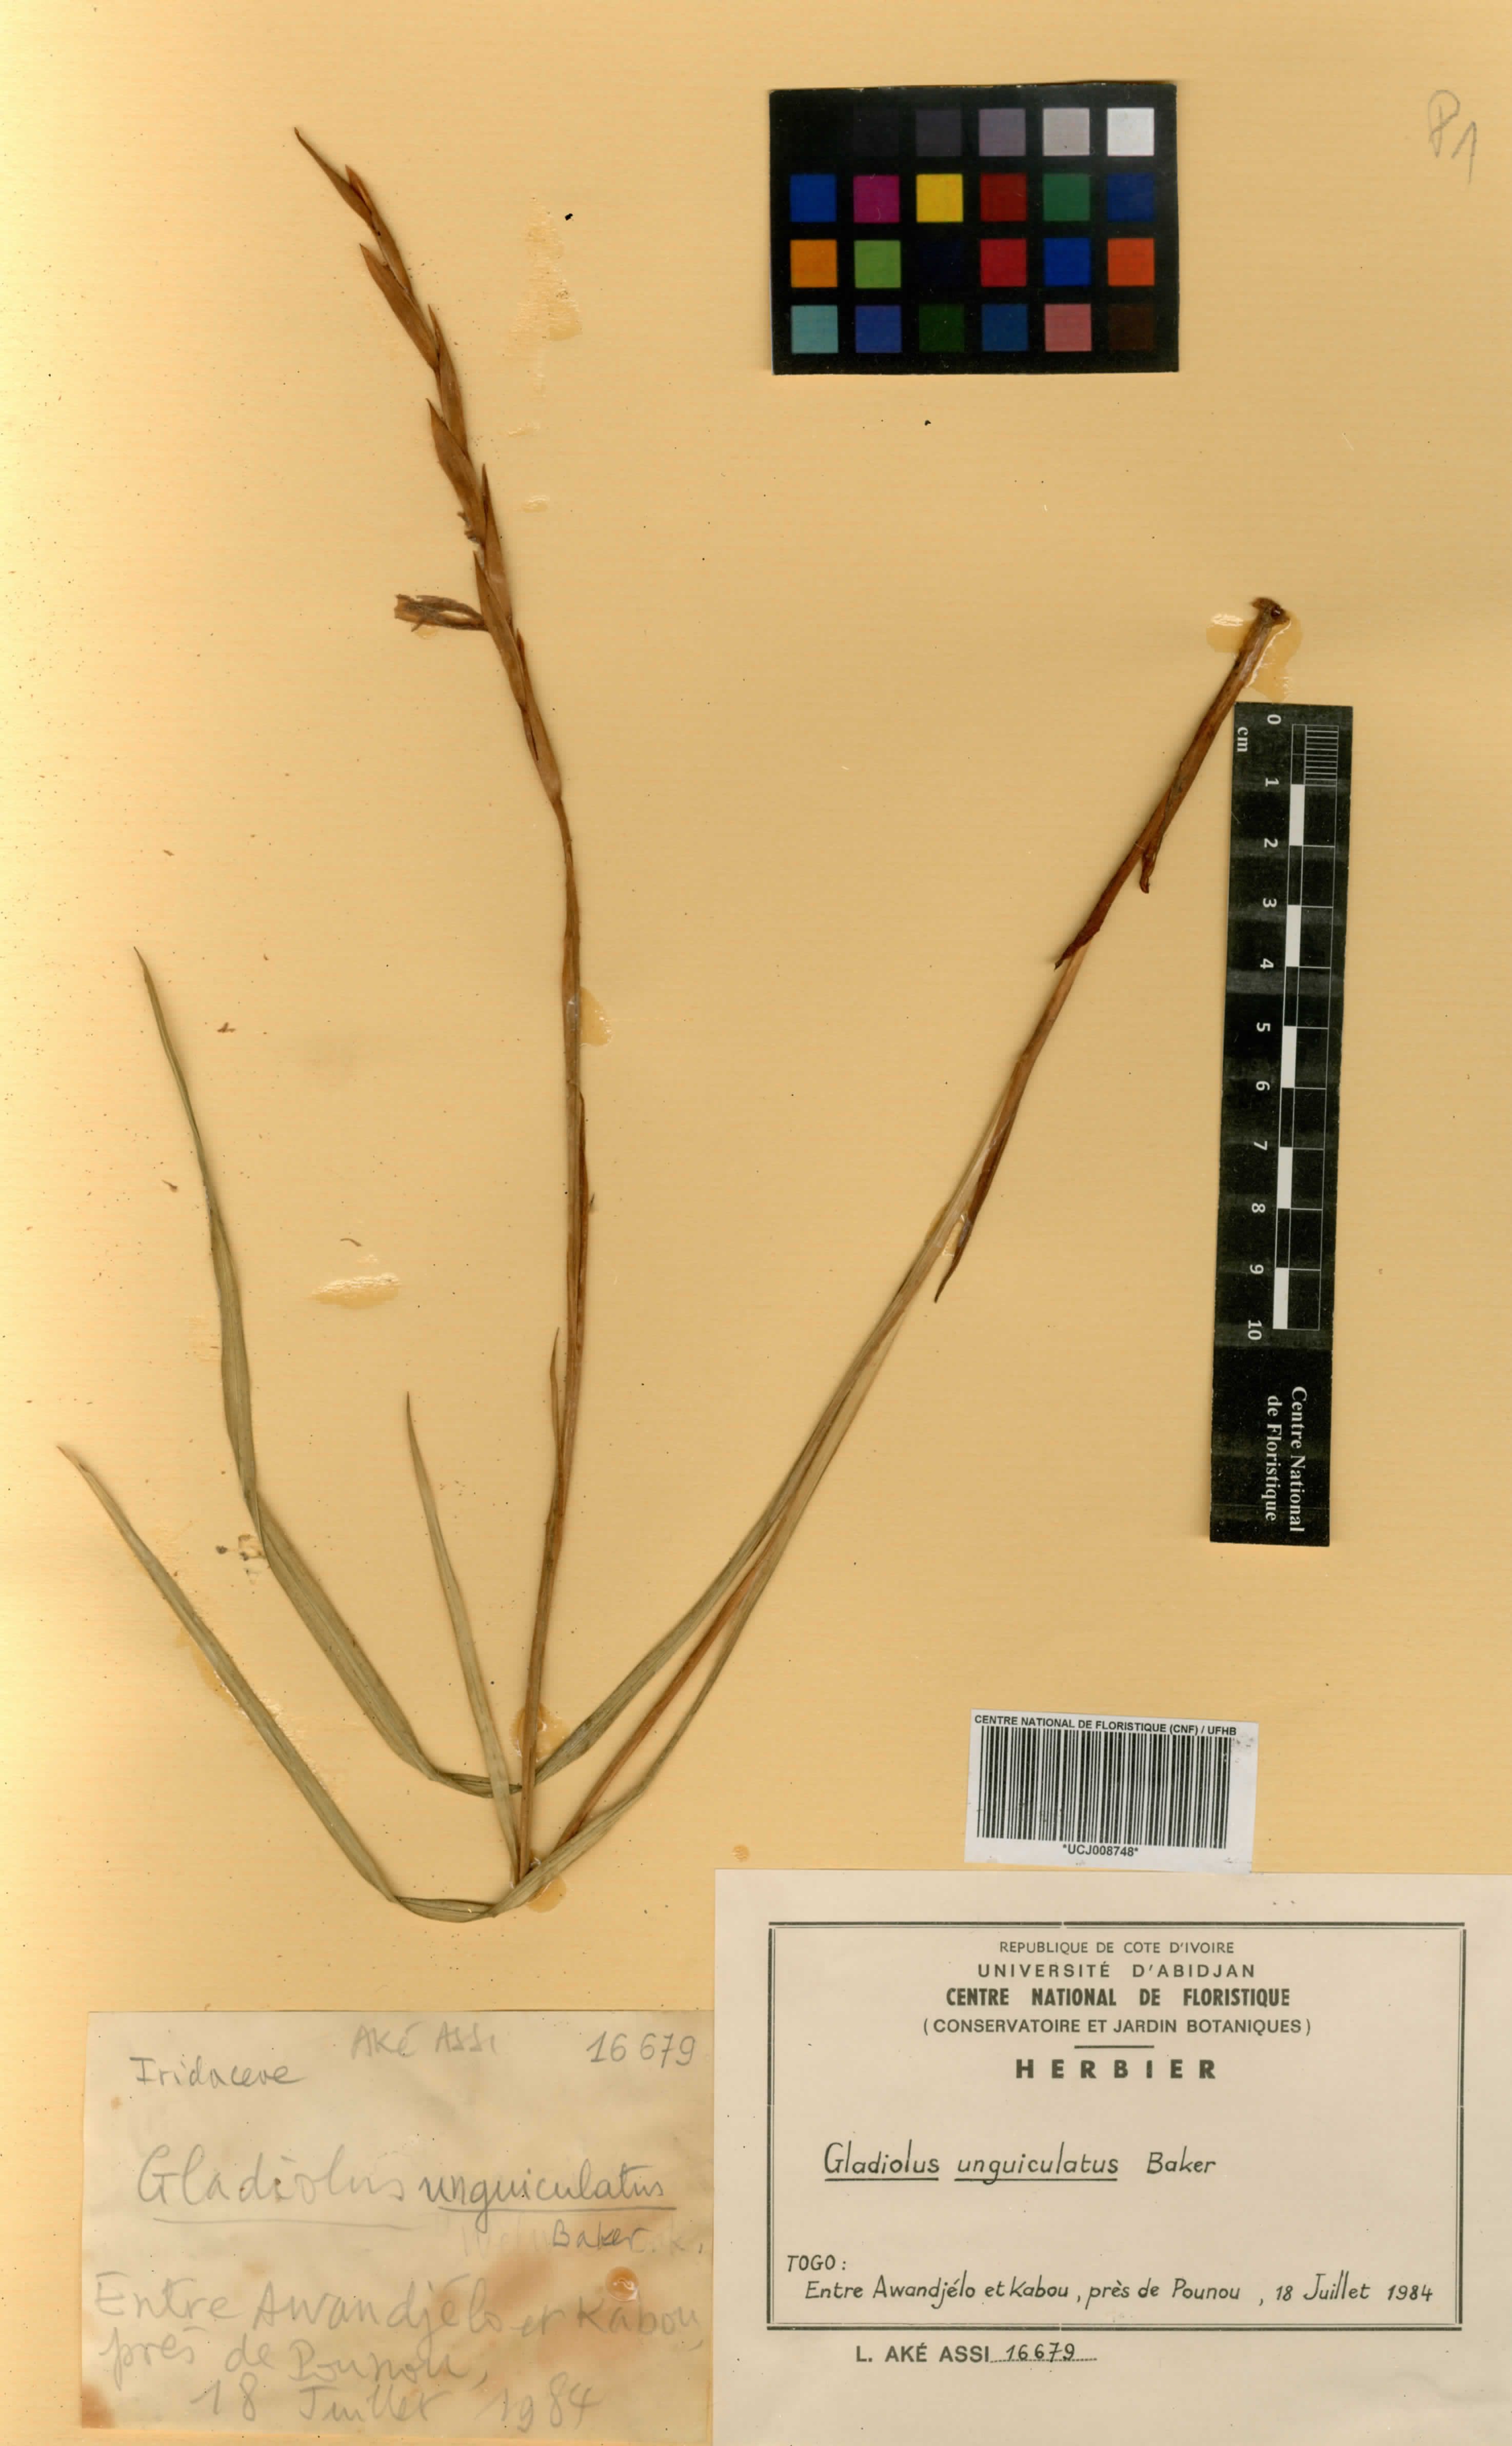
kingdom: Plantae
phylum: Tracheophyta
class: Liliopsida
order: Asparagales
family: Iridaceae
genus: Gladiolus
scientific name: Gladiolus unguiculatus
